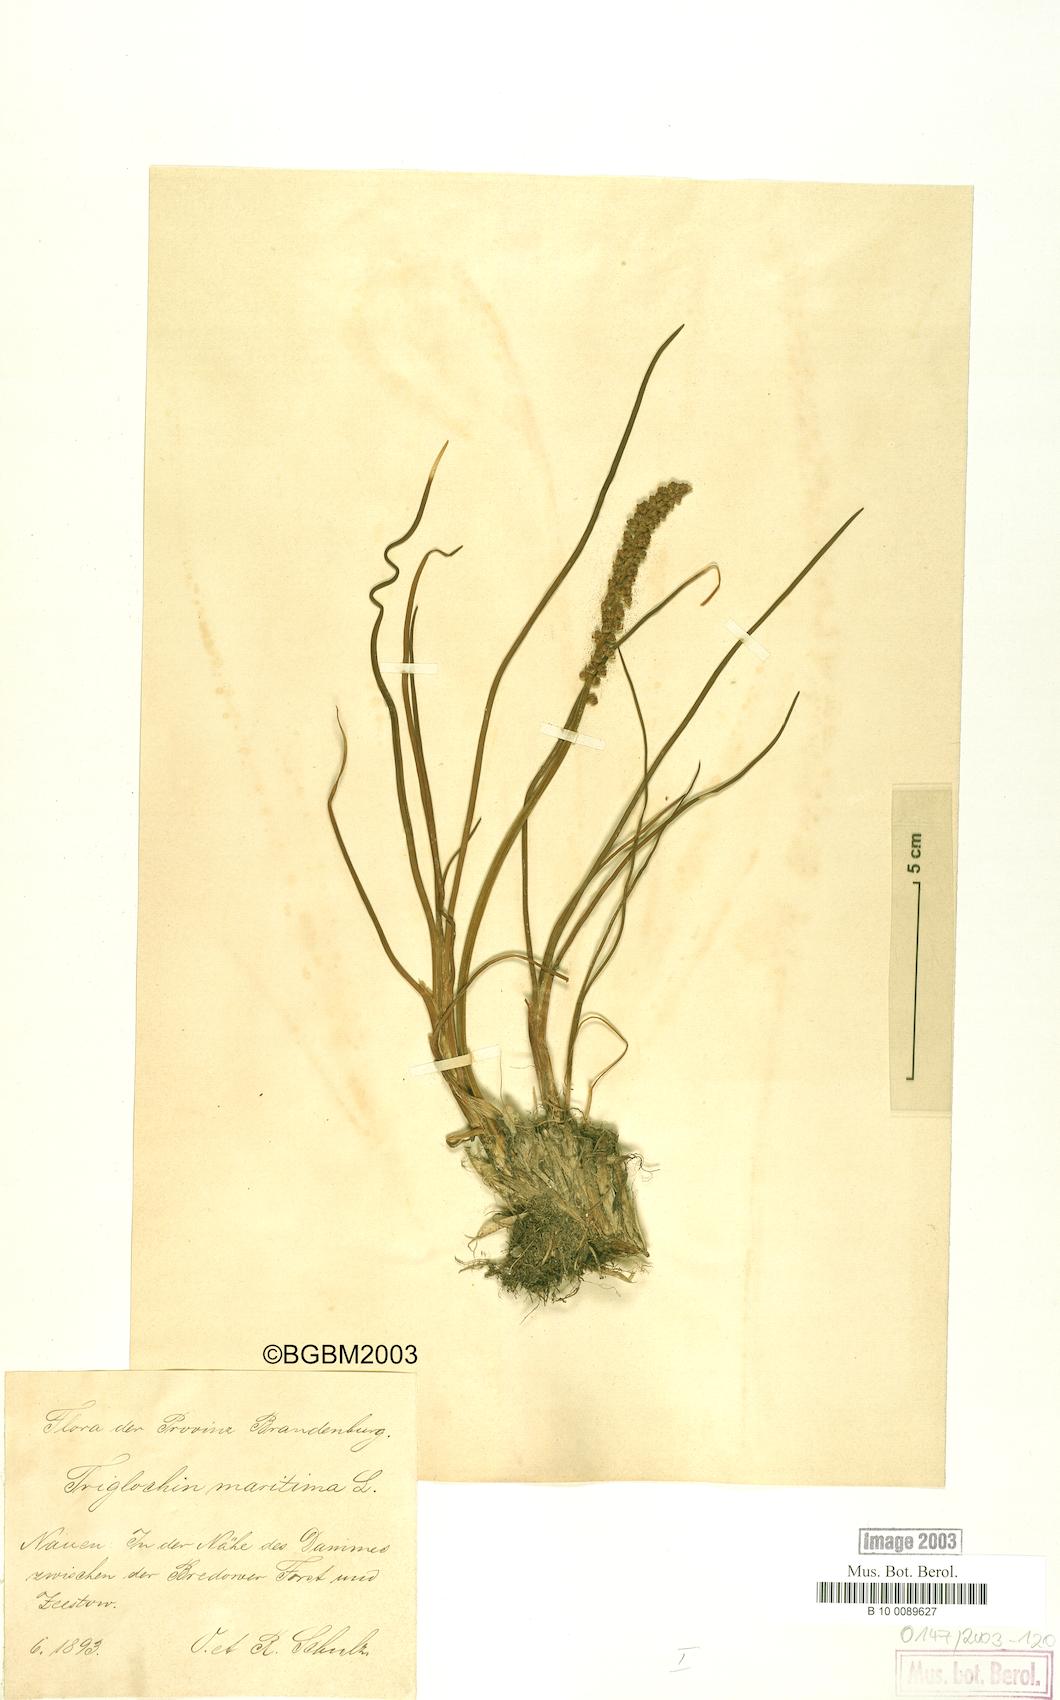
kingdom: Plantae
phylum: Tracheophyta
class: Liliopsida
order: Alismatales
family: Juncaginaceae
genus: Triglochin
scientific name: Triglochin maritima
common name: Sea arrowgrass
